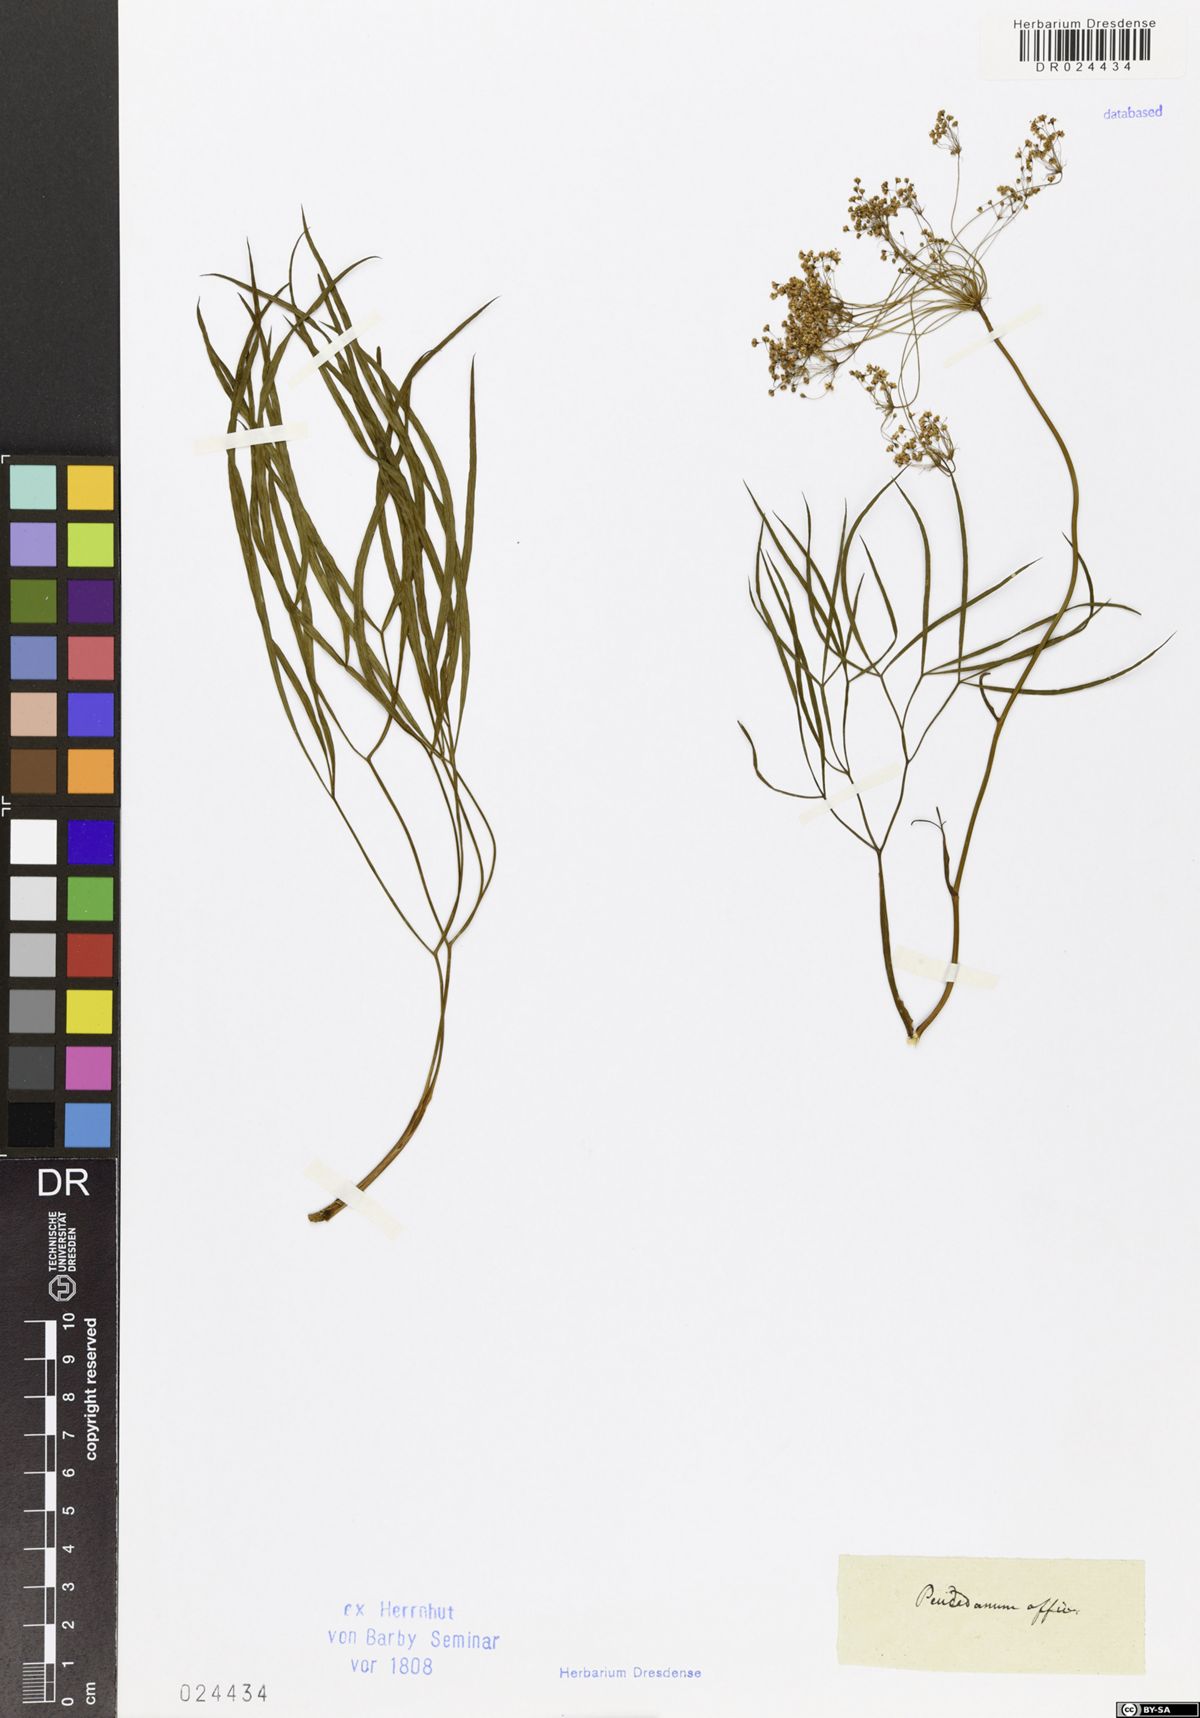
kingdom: Plantae
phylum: Tracheophyta
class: Magnoliopsida
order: Apiales
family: Apiaceae
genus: Peucedanum
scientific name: Peucedanum officinale
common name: Sulphurweed
